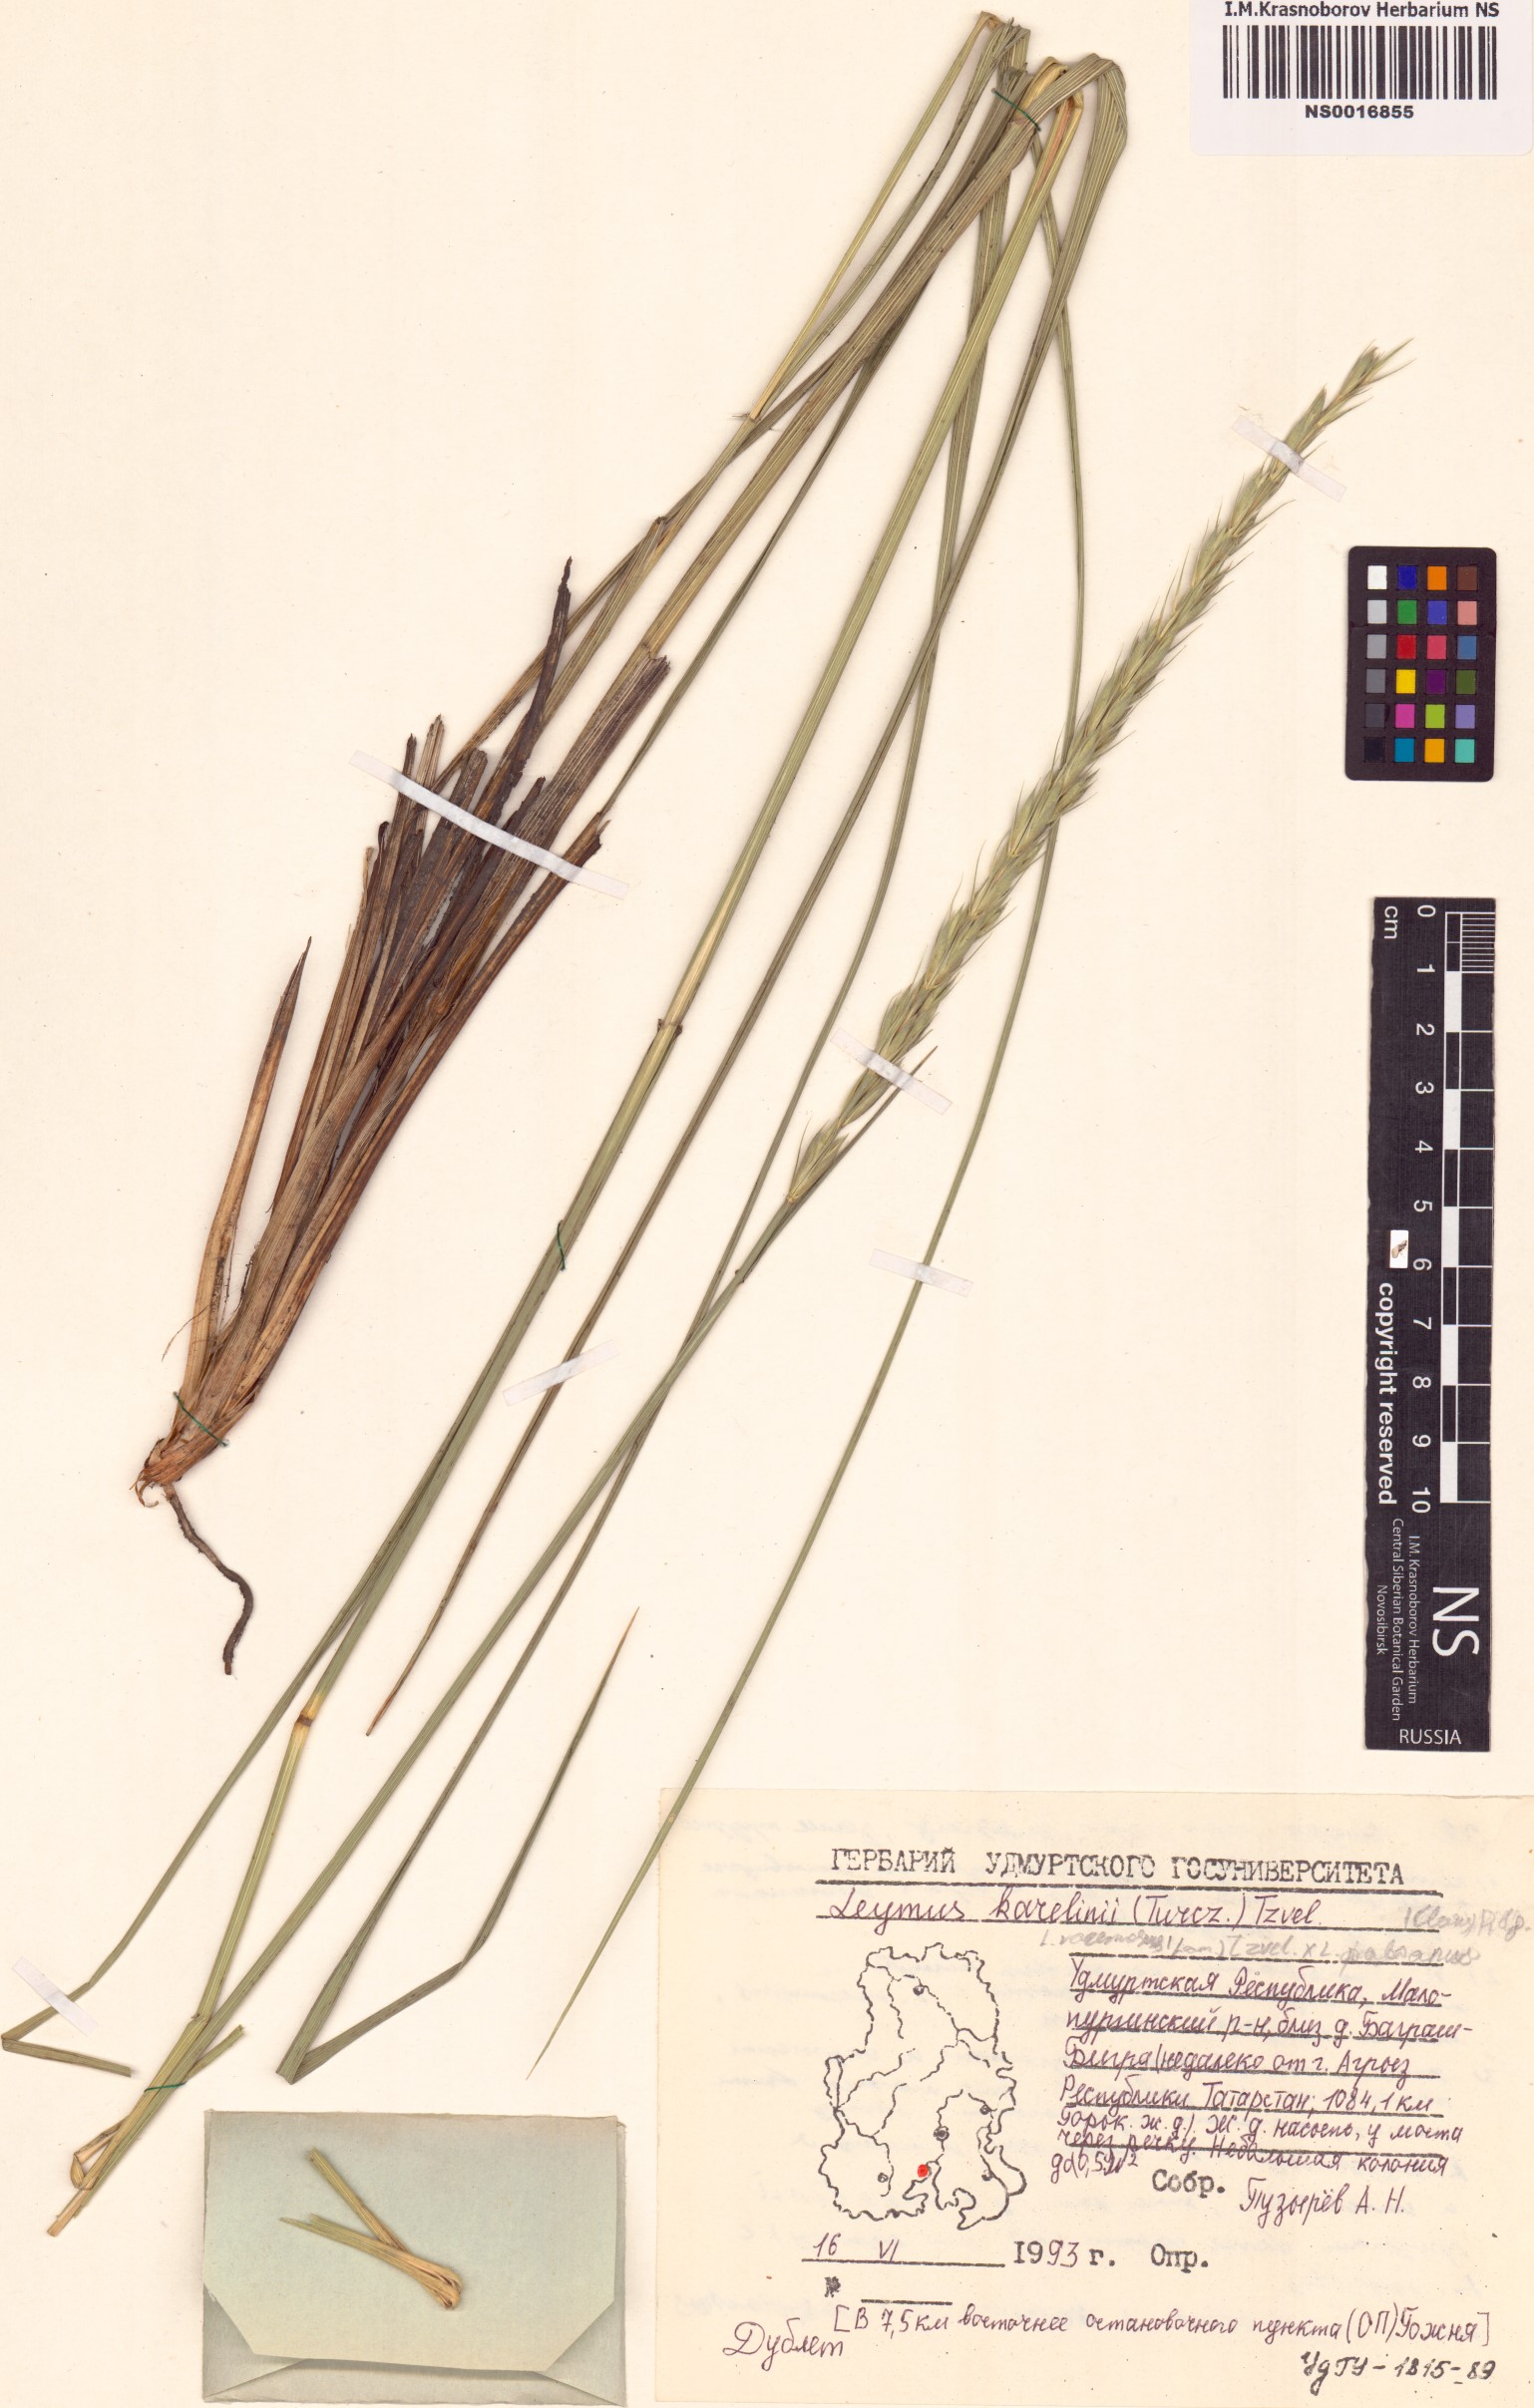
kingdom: Plantae
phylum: Tracheophyta
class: Liliopsida
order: Poales
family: Poaceae
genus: Leymus
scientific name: Leymus karelinii
